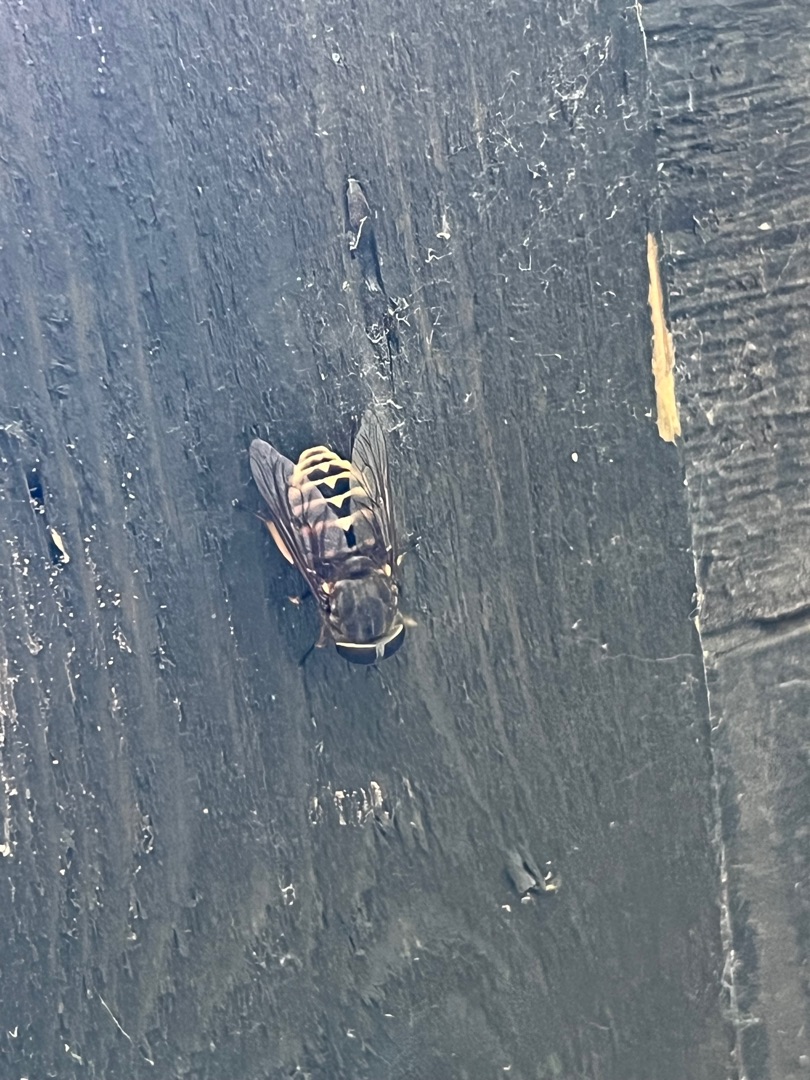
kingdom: Animalia
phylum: Arthropoda
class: Insecta
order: Diptera
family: Tabanidae
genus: Tabanus
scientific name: Tabanus sudeticus
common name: Hesteklæg
